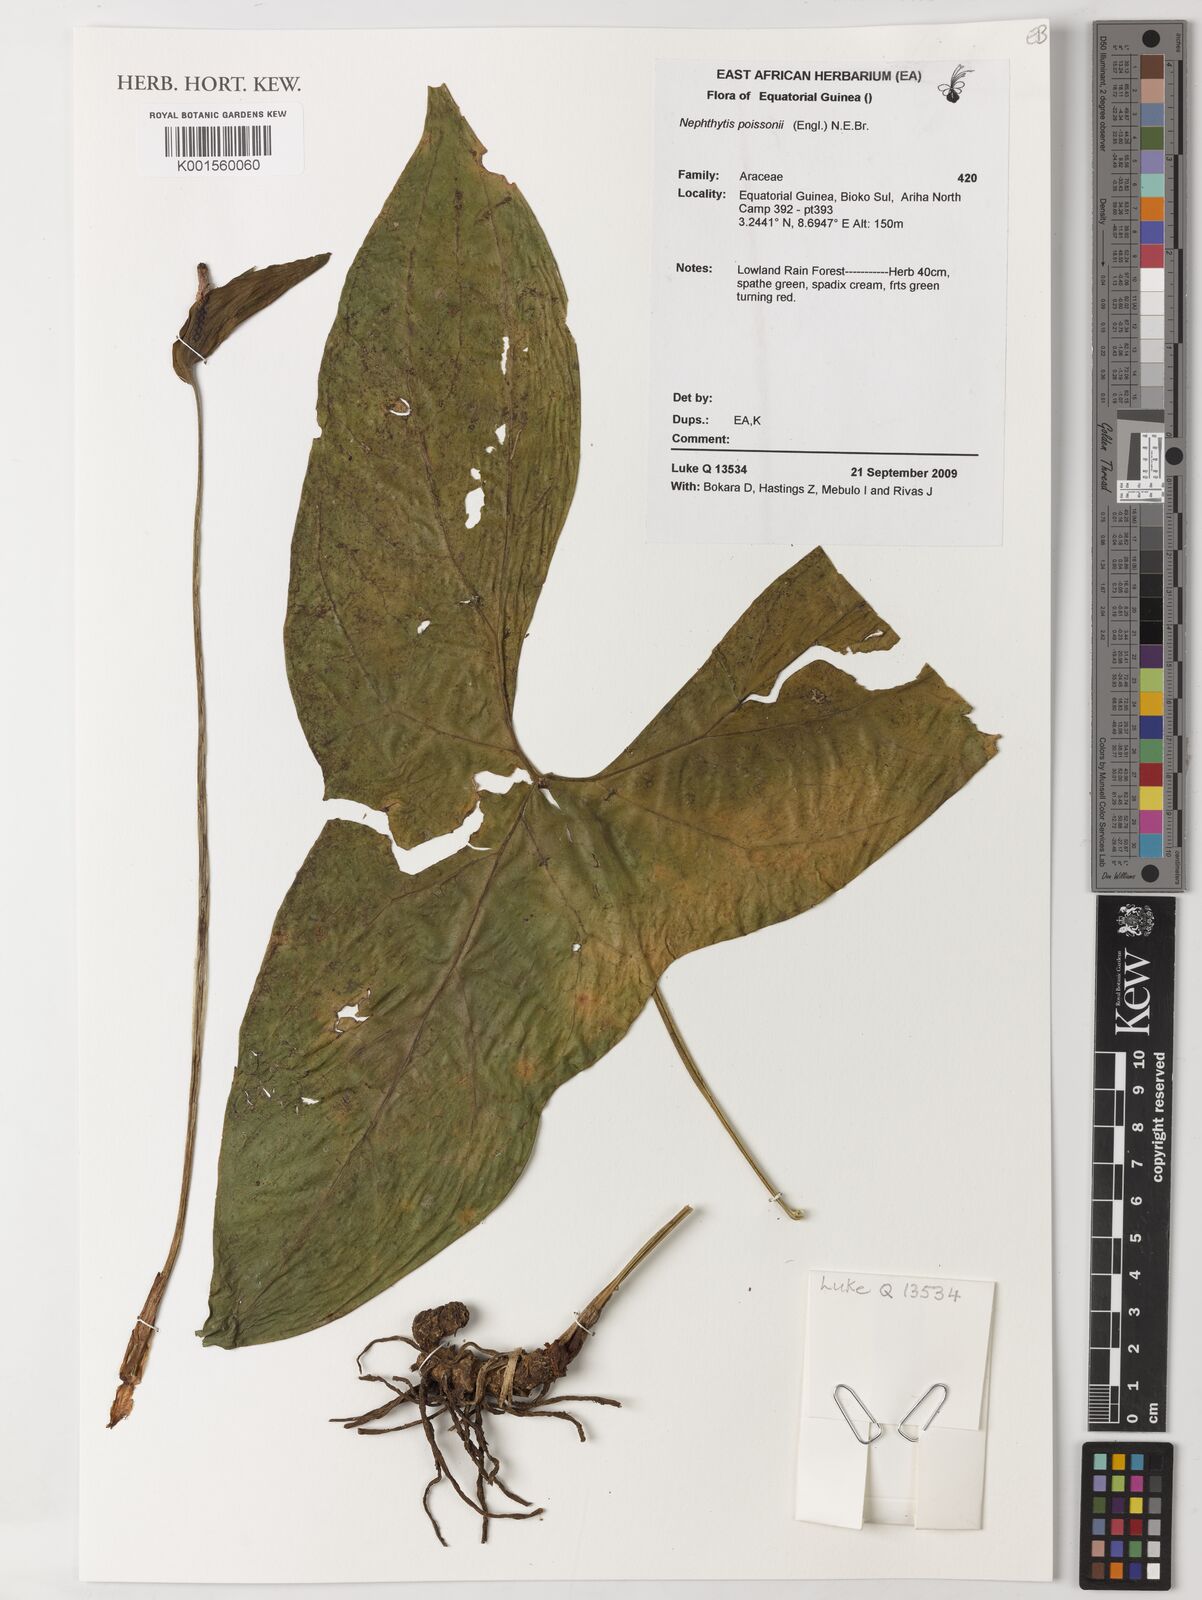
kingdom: Plantae
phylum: Tracheophyta
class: Liliopsida
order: Alismatales
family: Araceae
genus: Nephthytis
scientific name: Nephthytis poissonii
